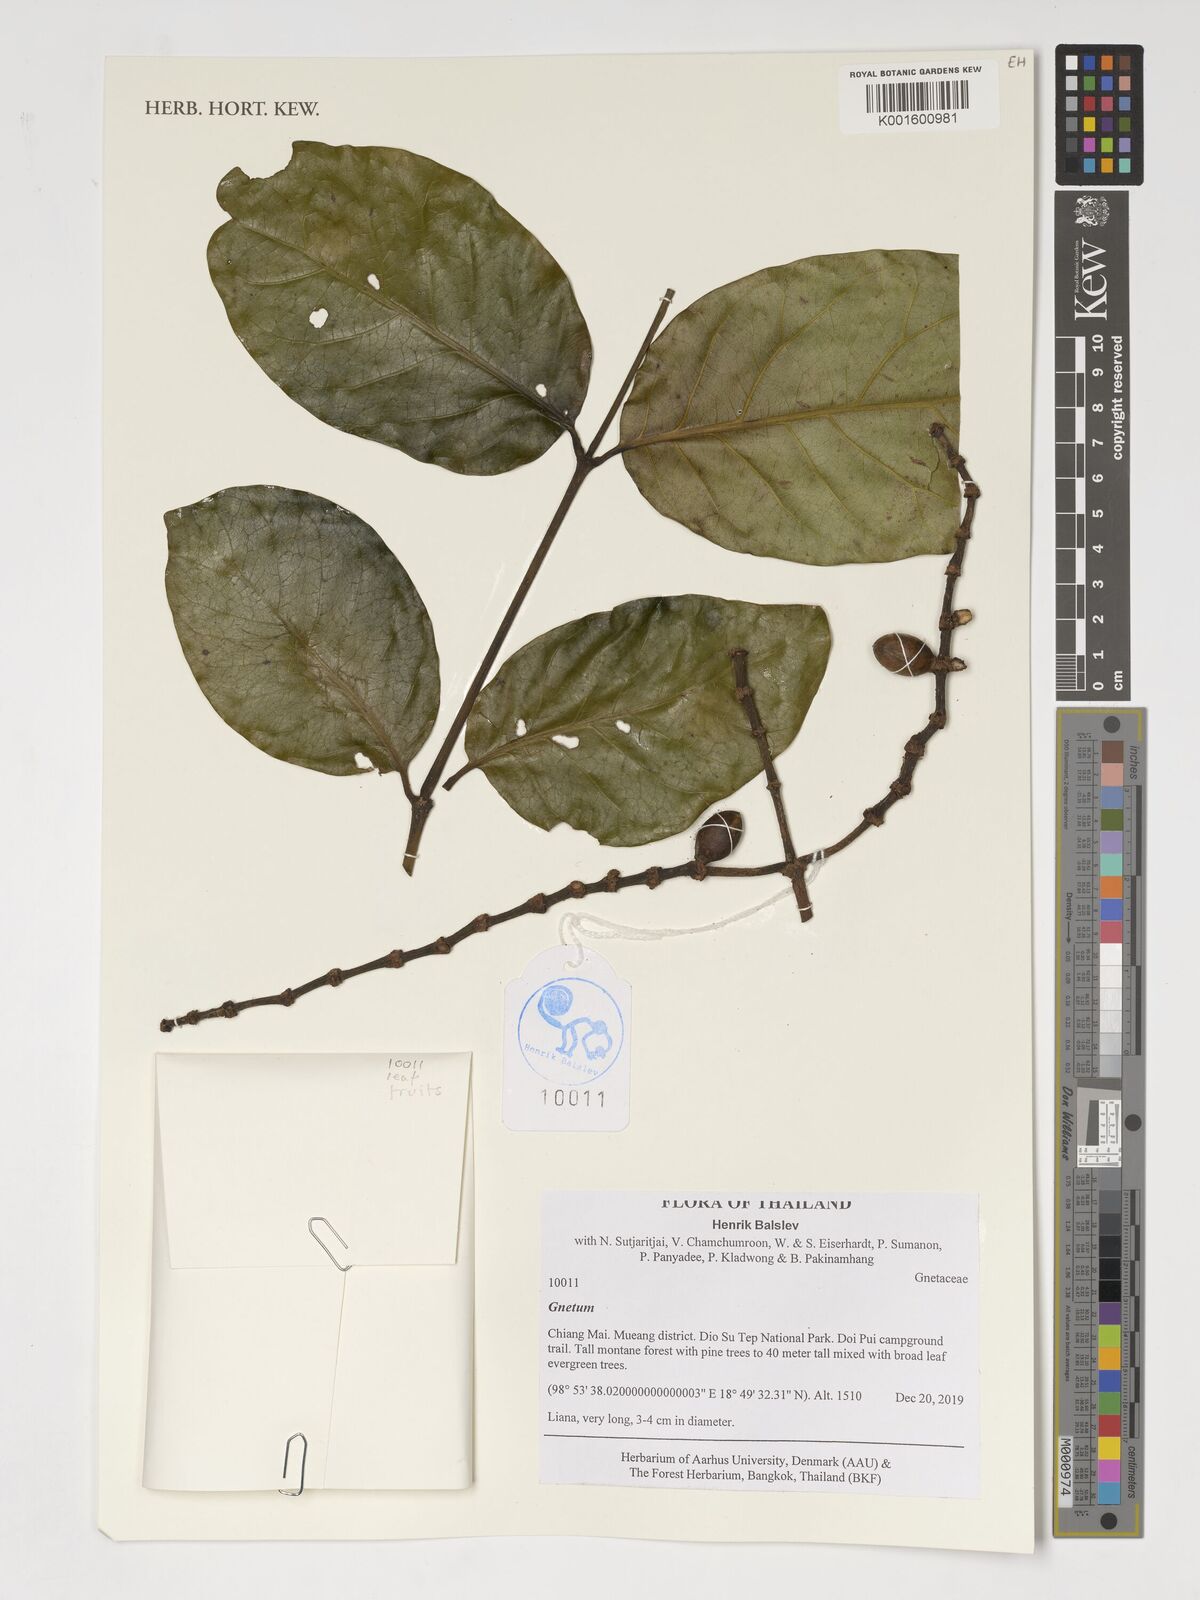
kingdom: Plantae
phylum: Tracheophyta
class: Gnetopsida
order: Gnetales
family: Gnetaceae
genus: Gnetum
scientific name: Gnetum
